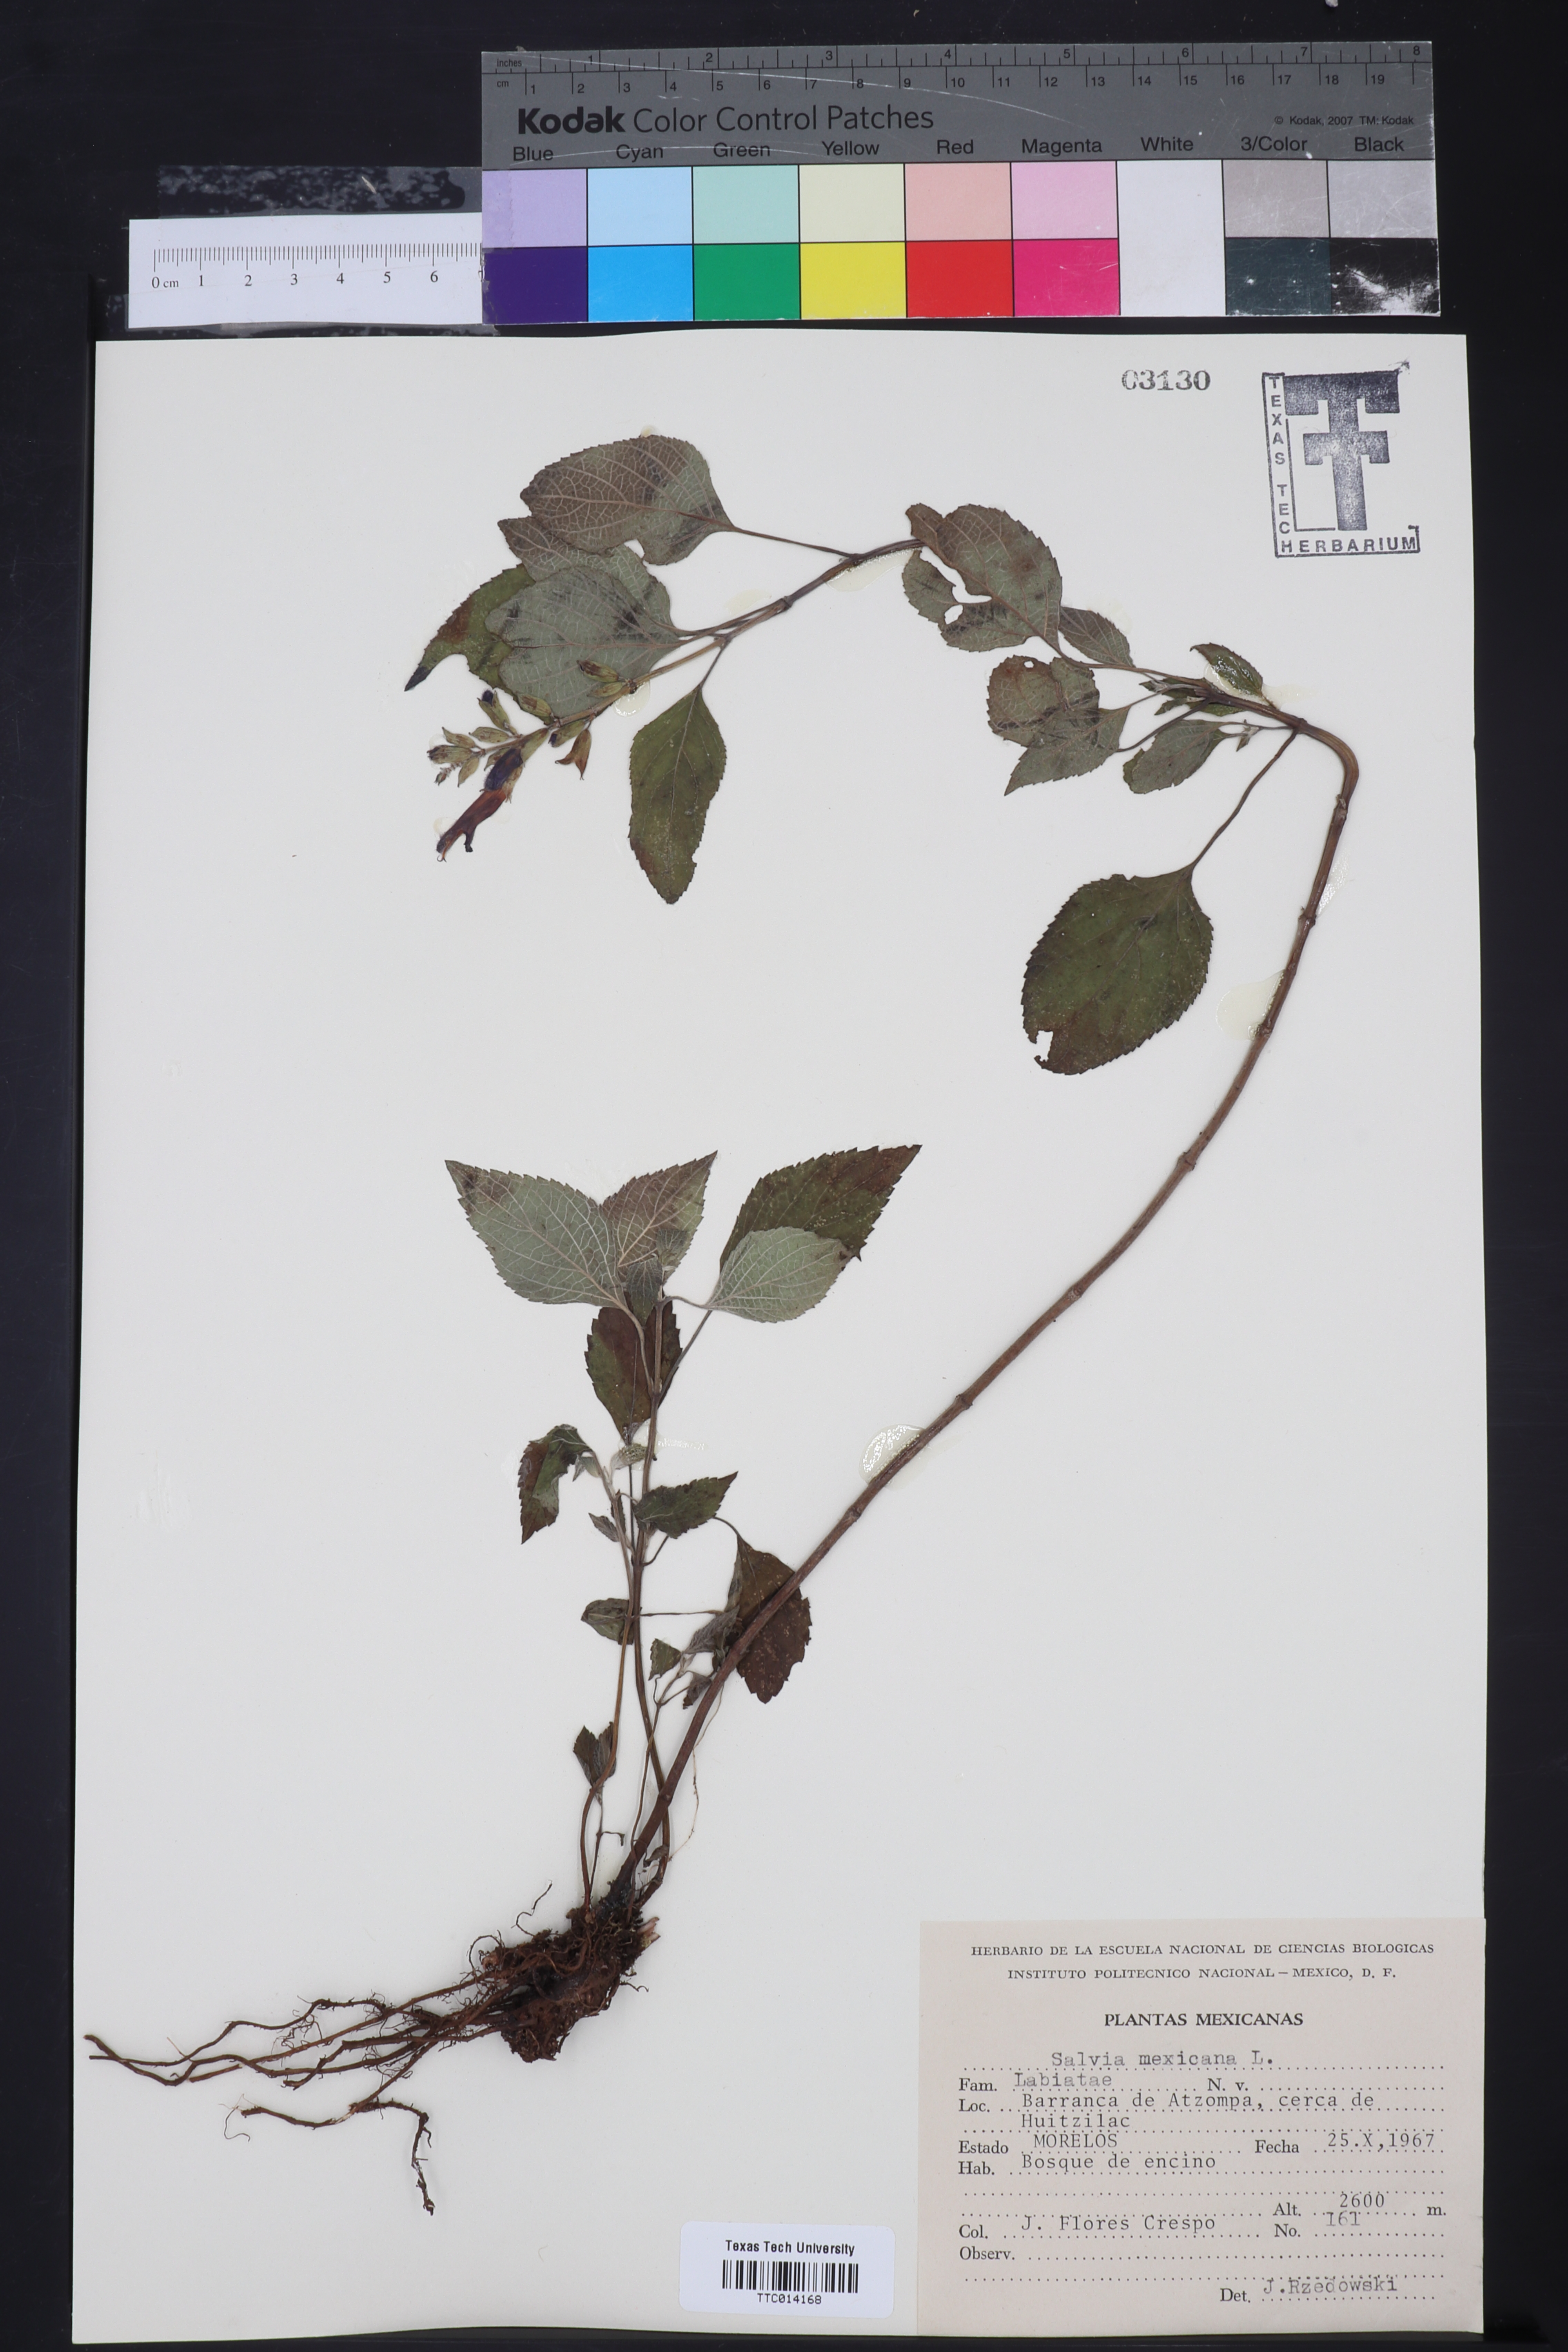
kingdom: Plantae
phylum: Tracheophyta
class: Magnoliopsida
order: Lamiales
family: Lamiaceae
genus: Salvia
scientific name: Salvia azurea
